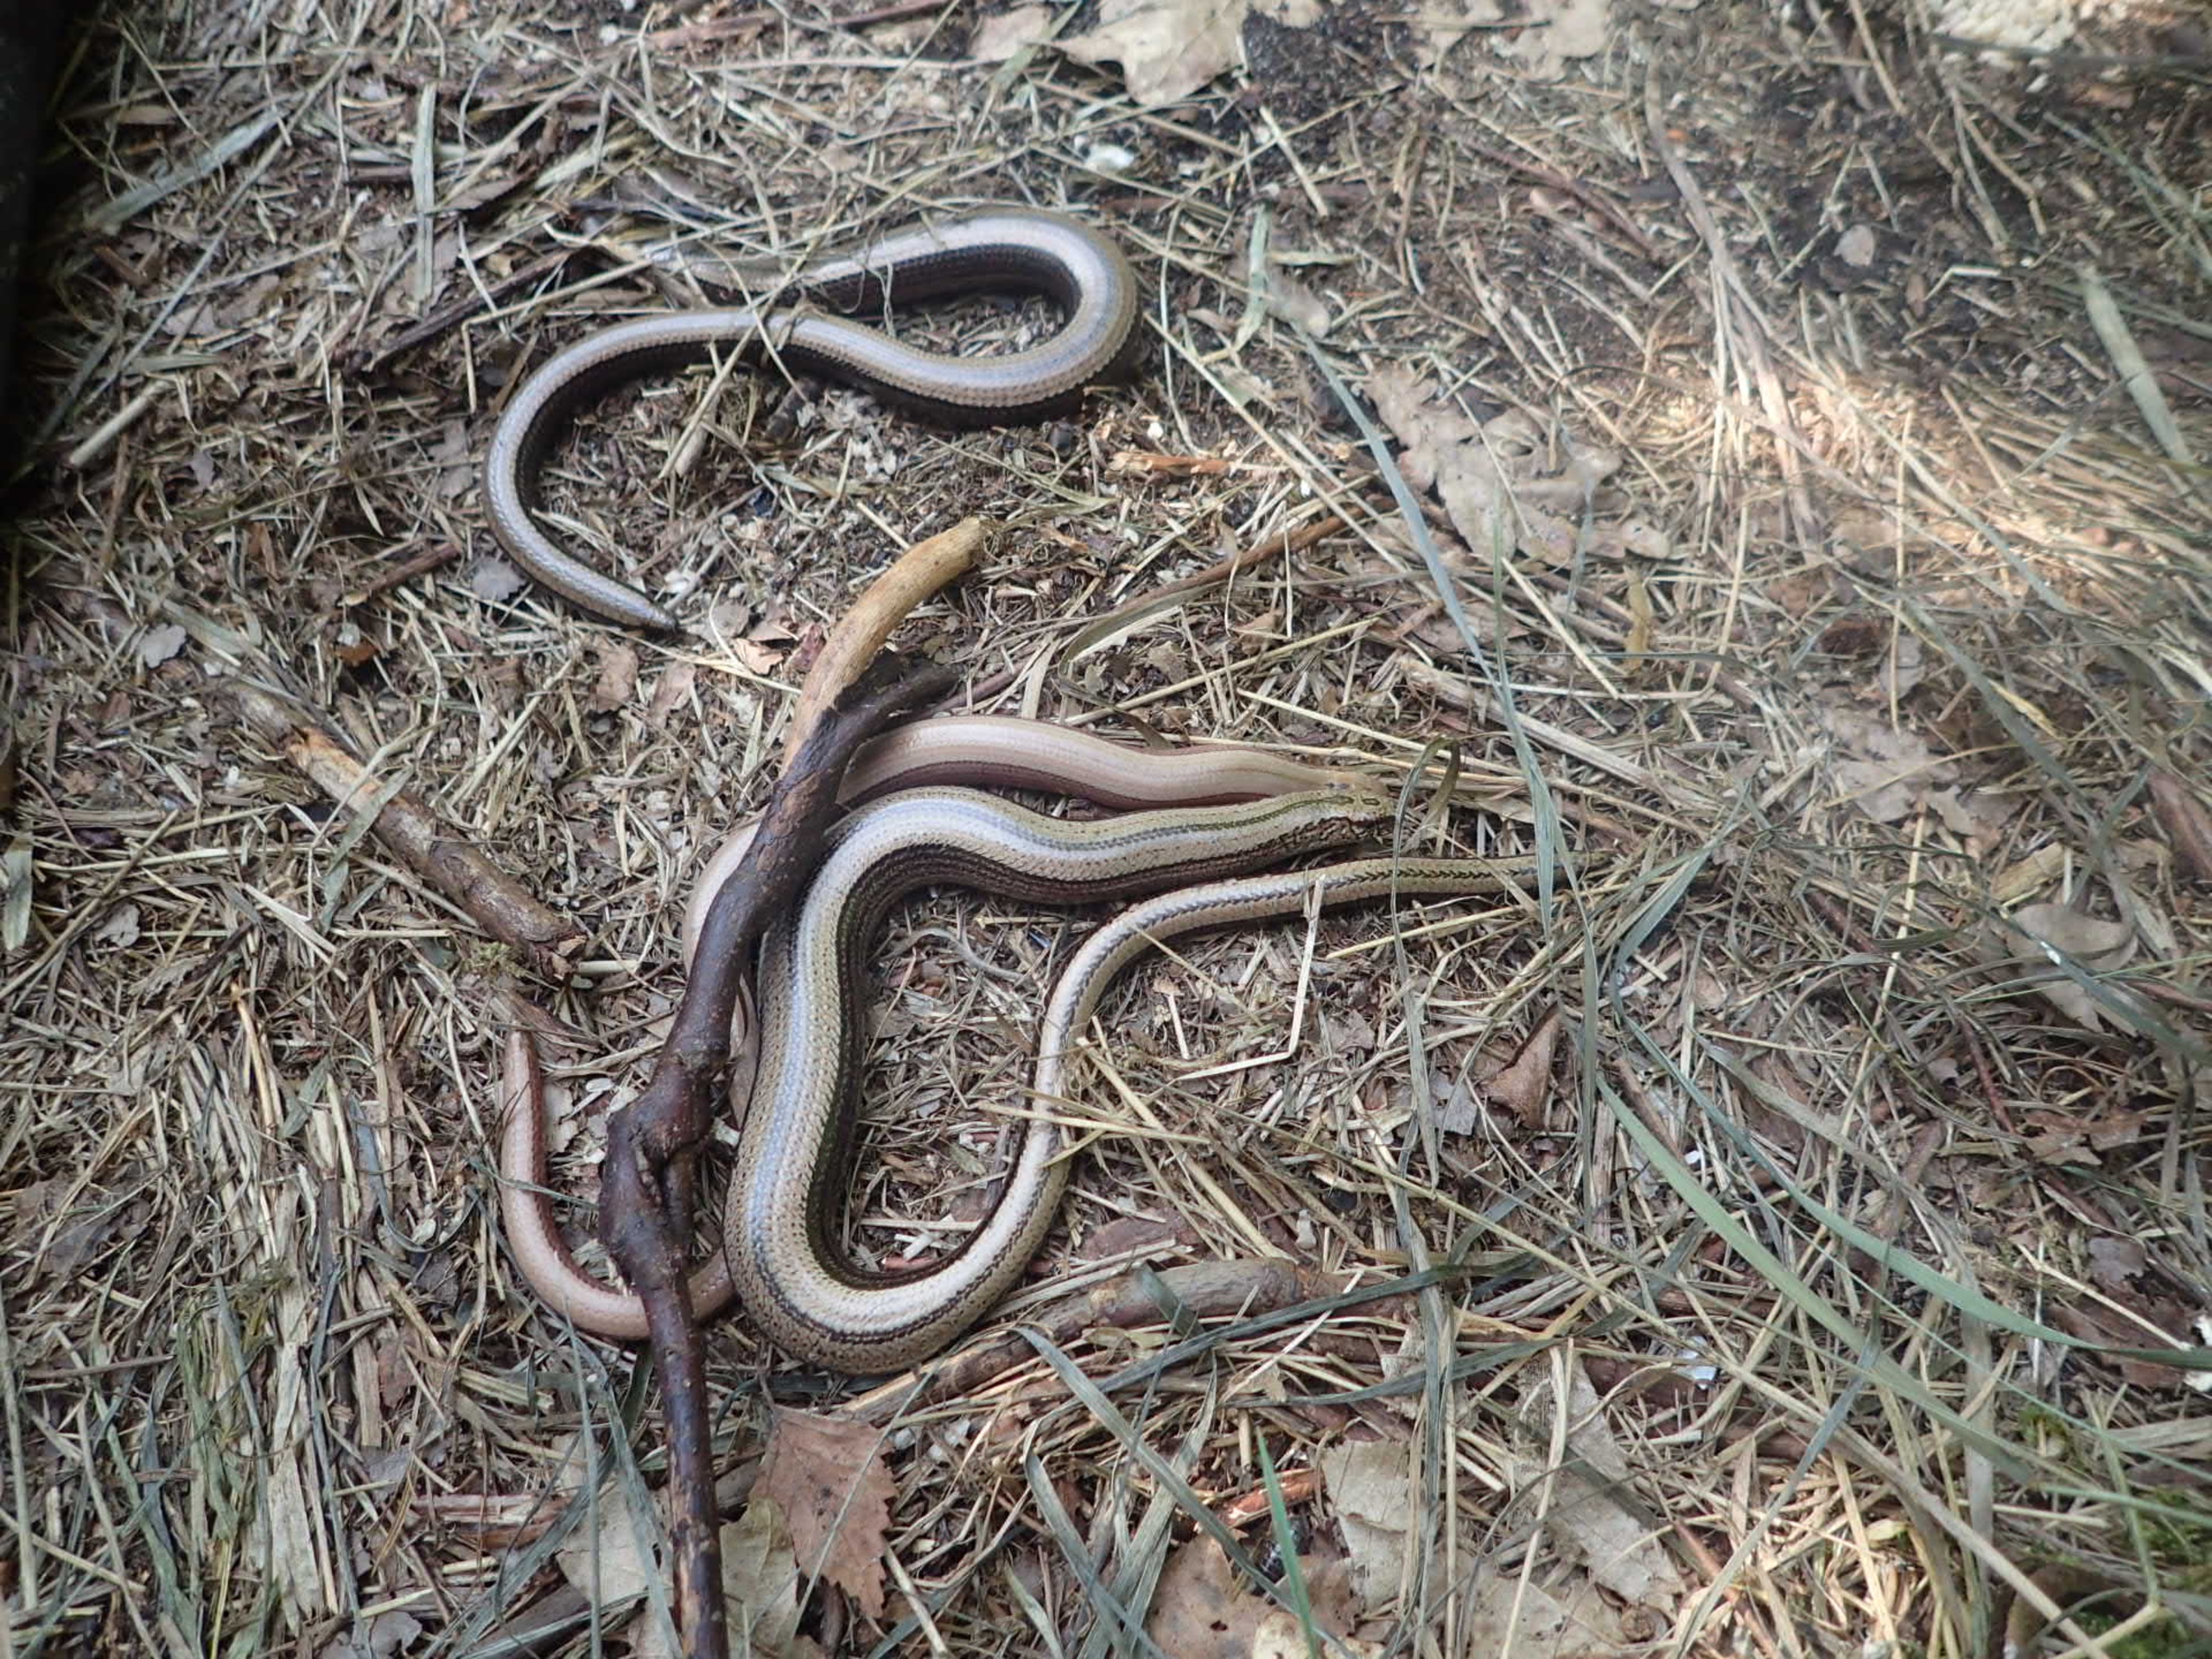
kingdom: Animalia
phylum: Chordata
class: Squamata
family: Anguidae
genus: Anguis
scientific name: Anguis fragilis
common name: Stålorm
